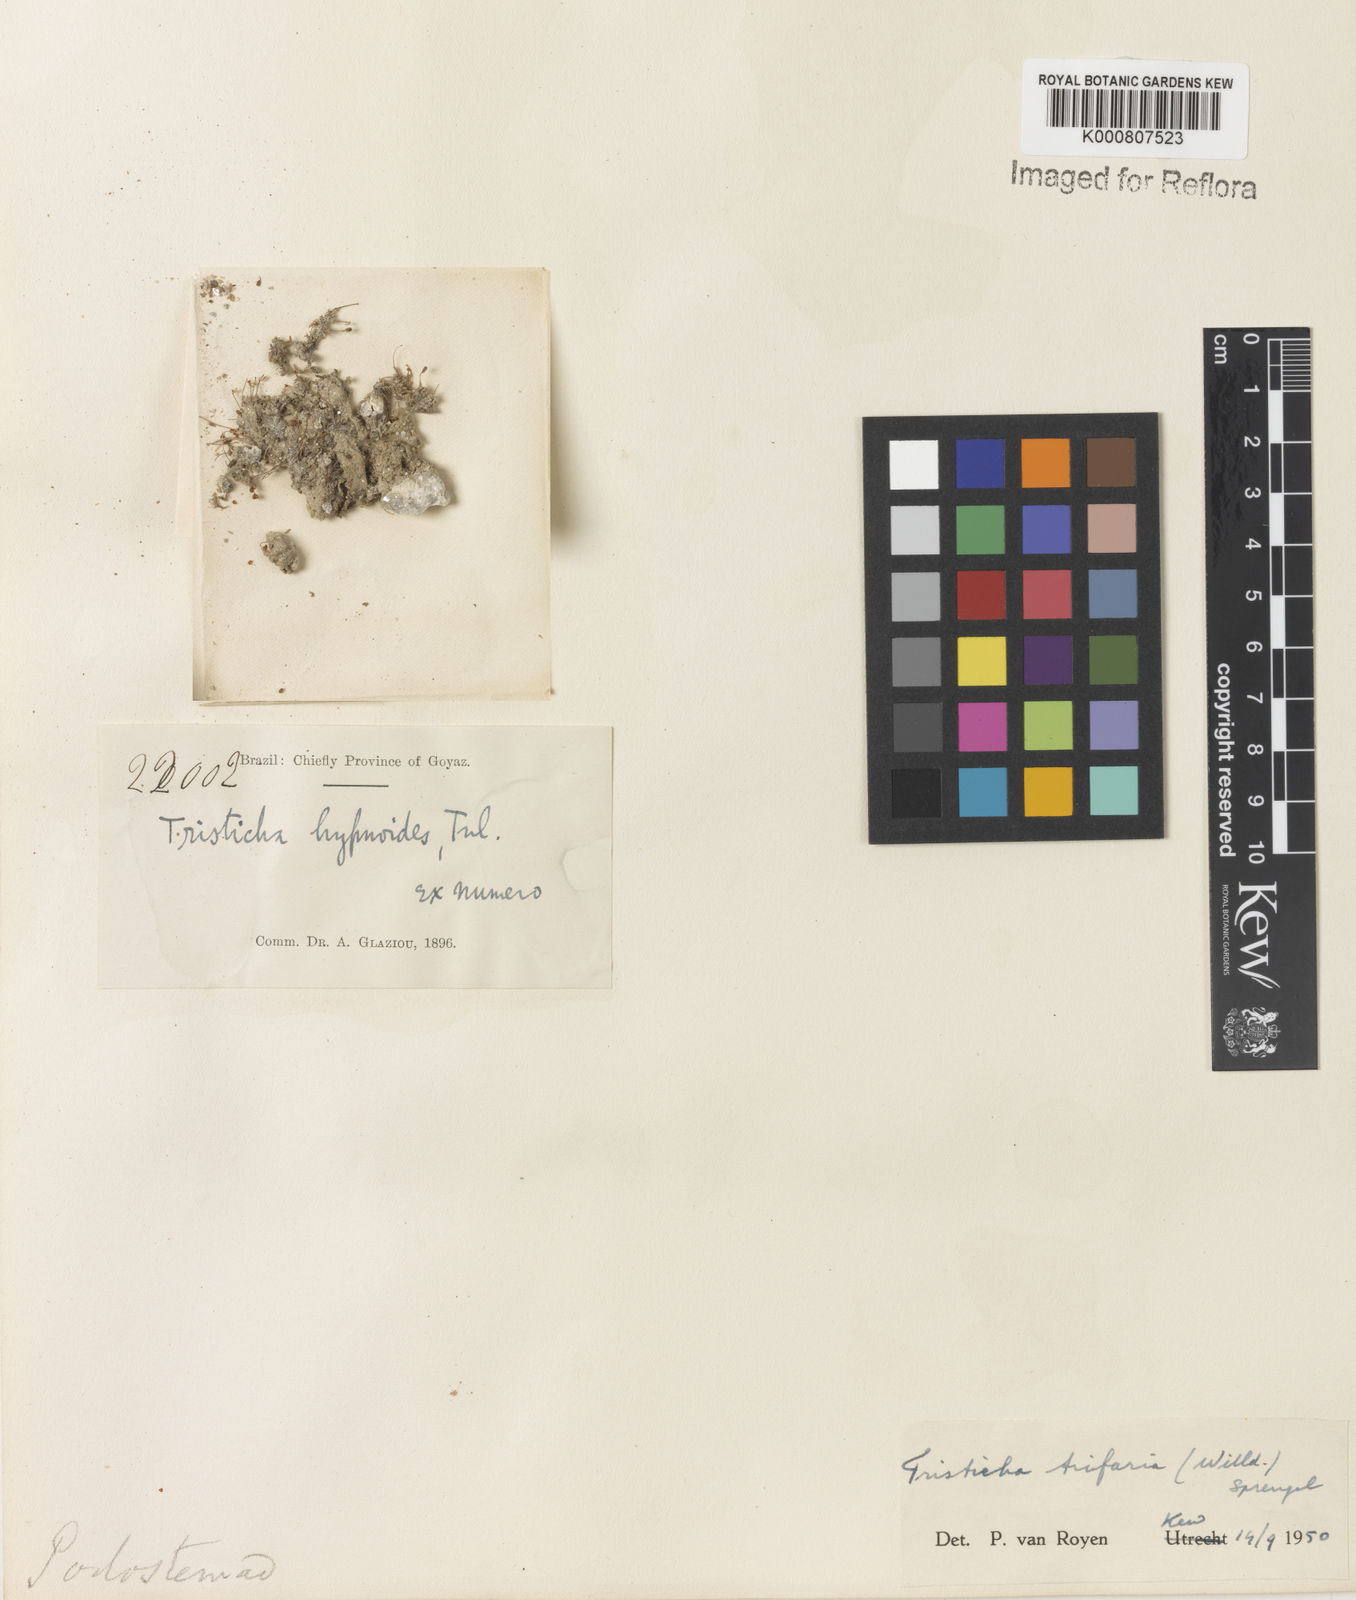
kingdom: Plantae
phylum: Tracheophyta
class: Magnoliopsida
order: Malpighiales
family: Podostemaceae
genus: Tristicha
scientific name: Tristicha trifaria
